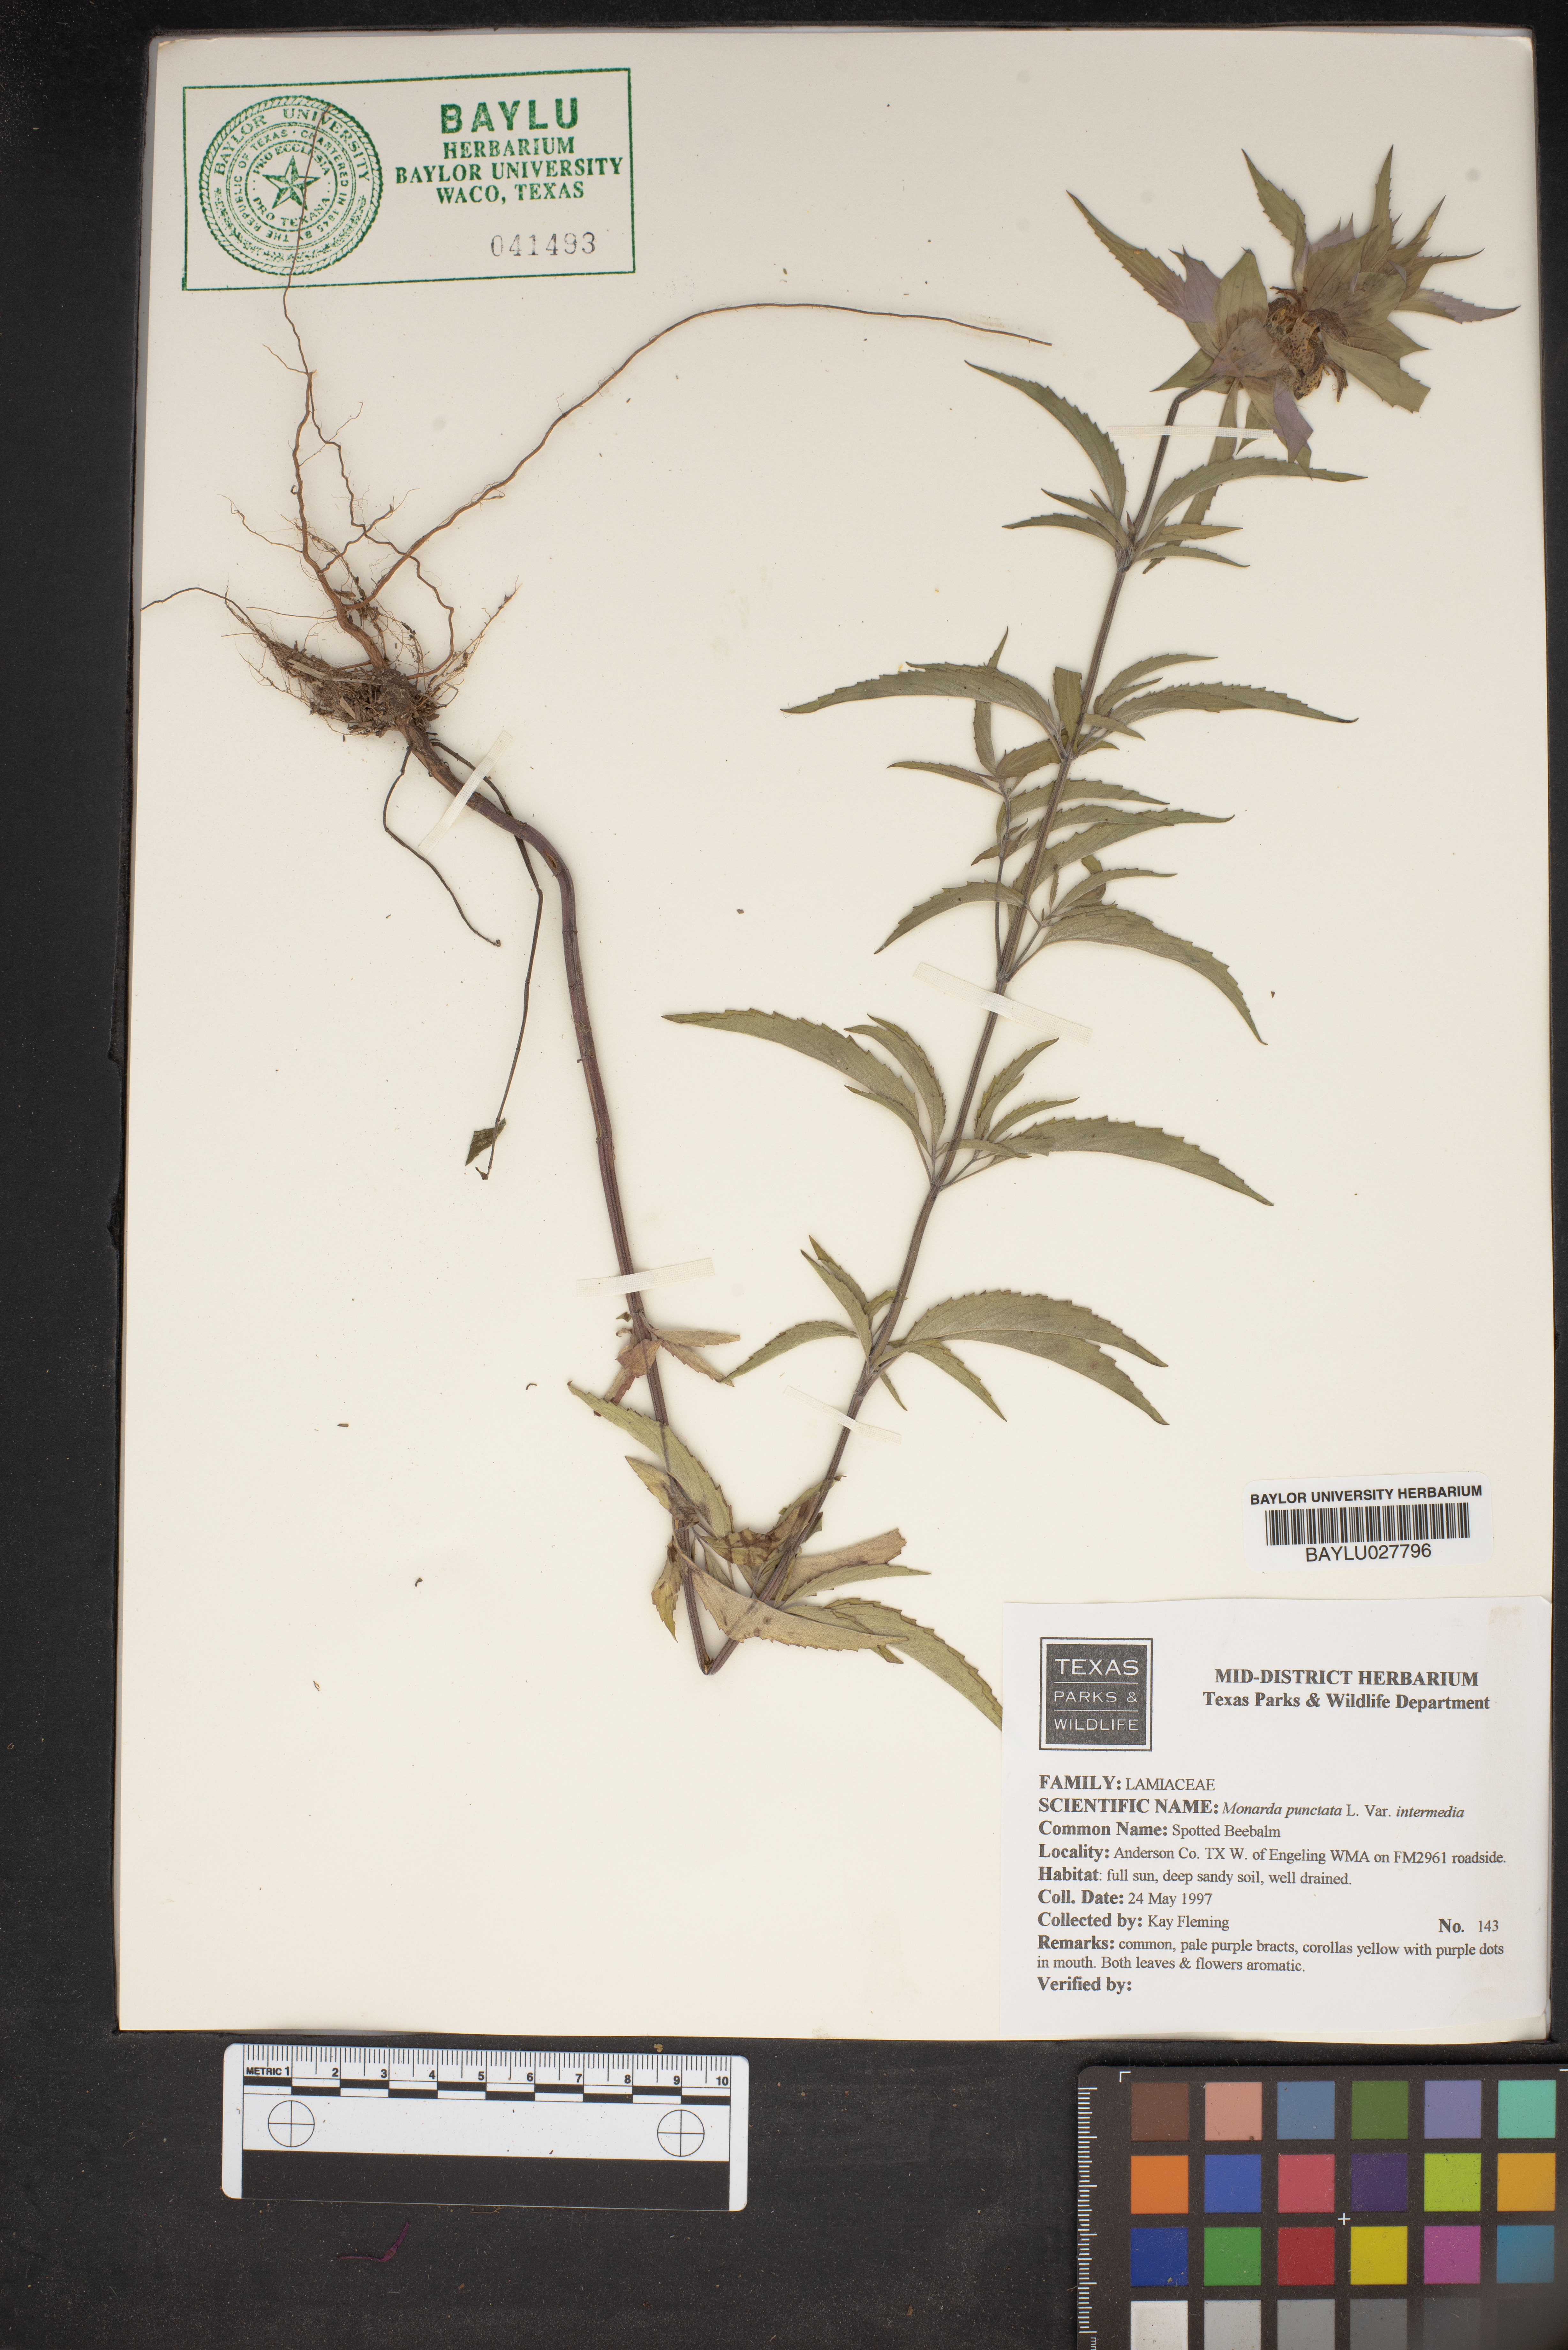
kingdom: Plantae
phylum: Tracheophyta
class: Magnoliopsida
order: Lamiales
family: Lamiaceae
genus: Monarda
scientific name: Monarda punctata
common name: Dotted monarda
